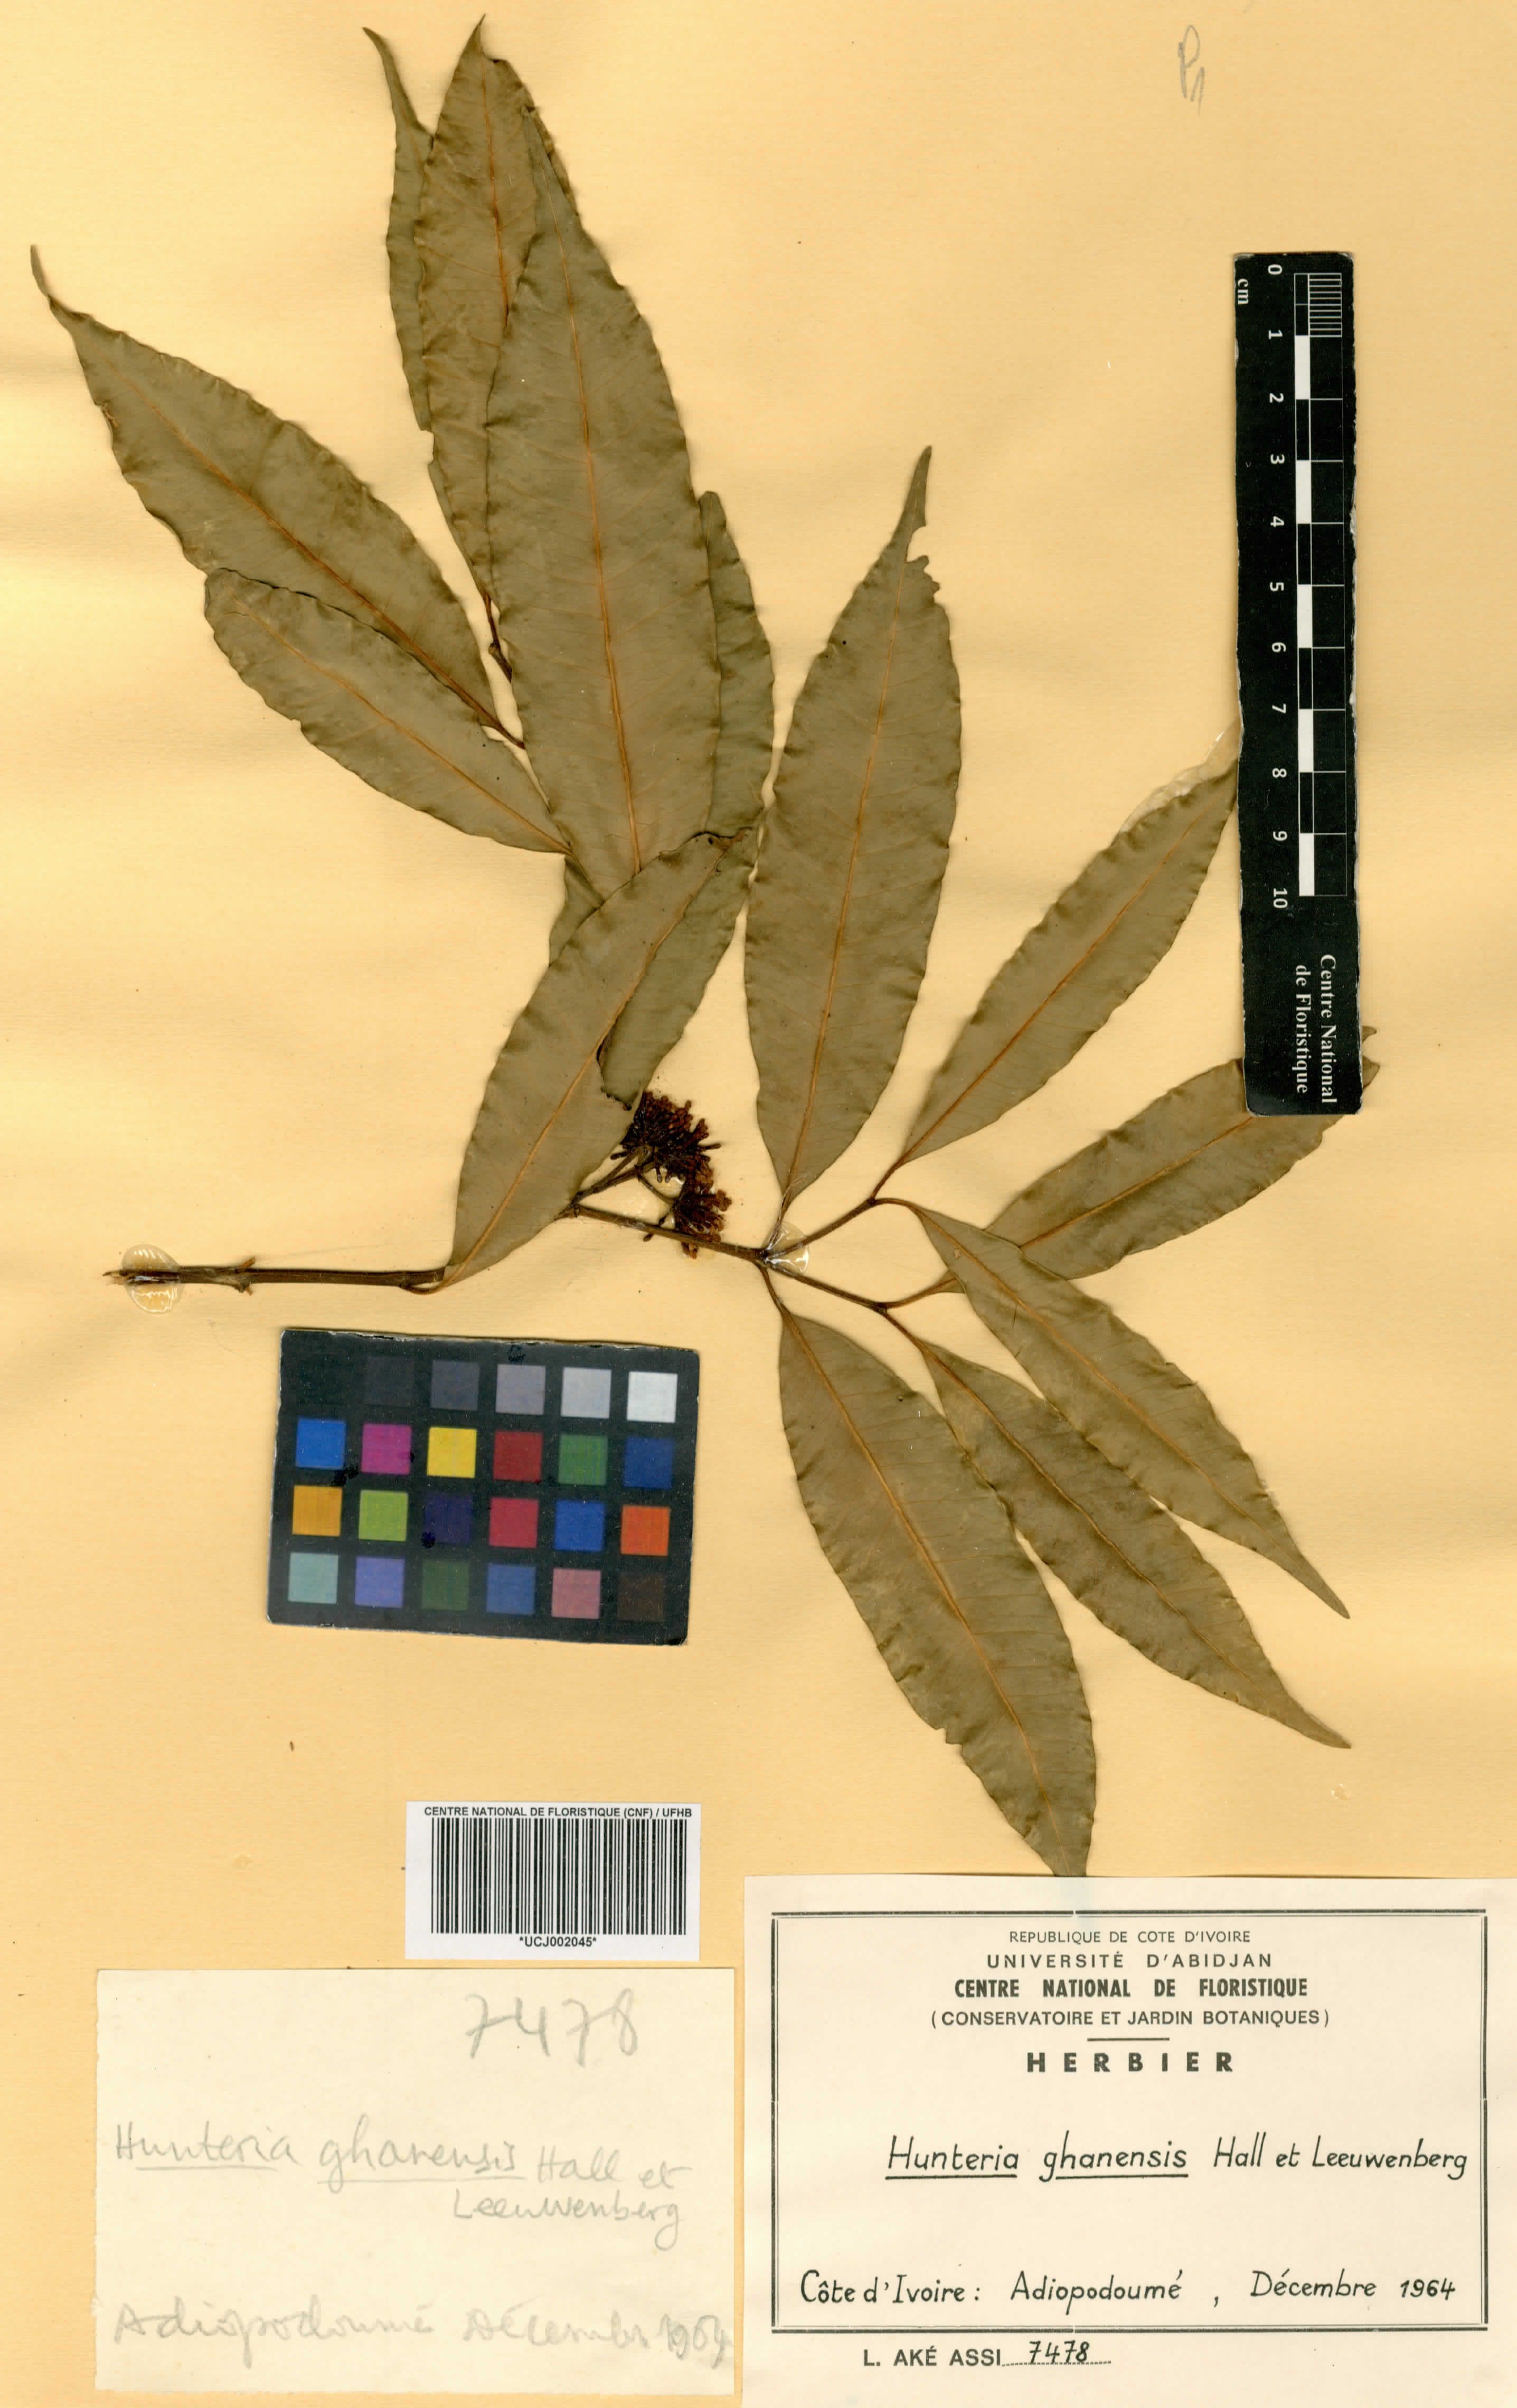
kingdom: Plantae
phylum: Tracheophyta
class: Magnoliopsida
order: Gentianales
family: Apocynaceae
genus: Hunteria
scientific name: Hunteria ghanensis
